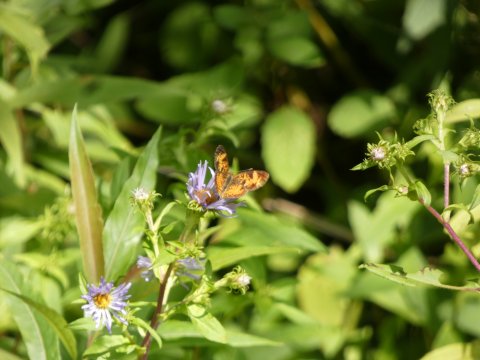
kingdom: Animalia
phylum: Arthropoda
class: Insecta
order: Lepidoptera
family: Nymphalidae
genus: Phyciodes
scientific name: Phyciodes tharos
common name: Pearl Crescent
